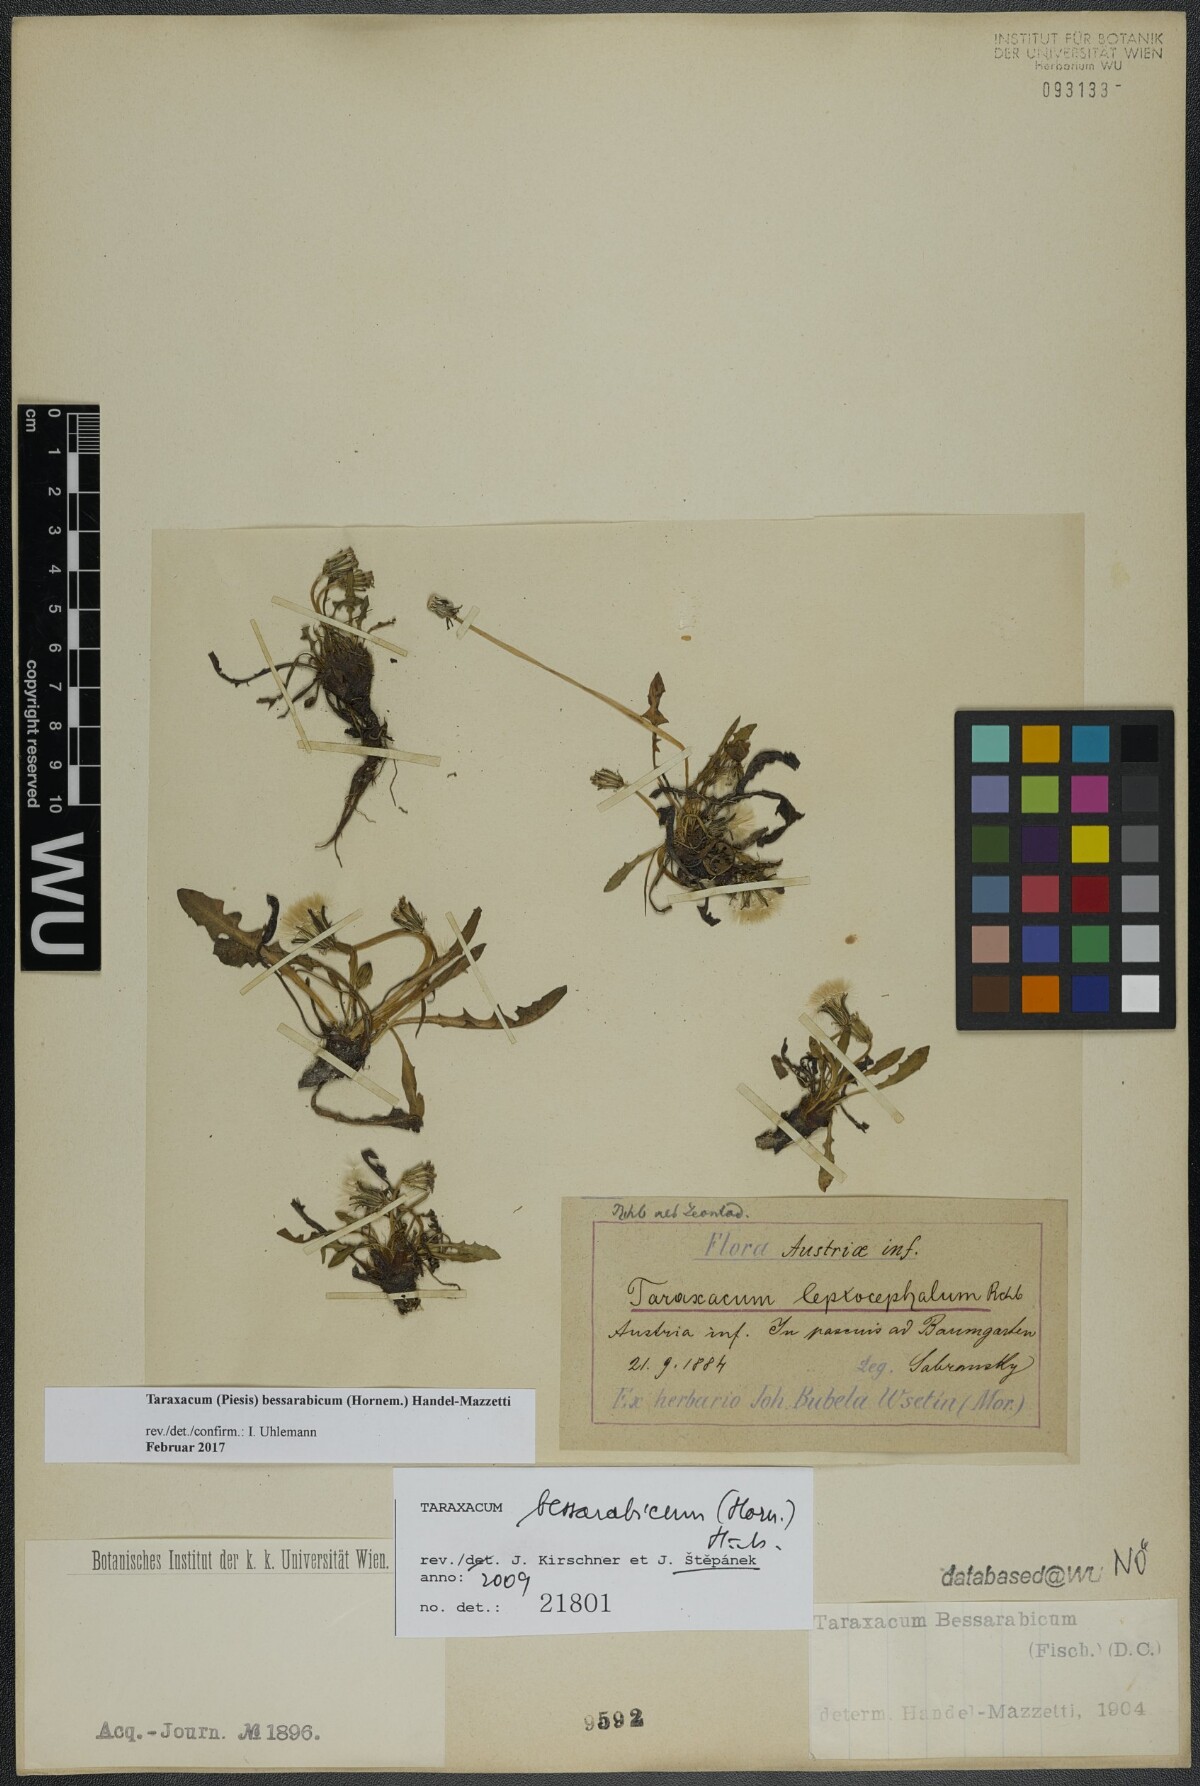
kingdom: Plantae
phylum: Tracheophyta
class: Magnoliopsida
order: Asterales
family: Asteraceae
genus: Taraxacum
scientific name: Taraxacum bessarabicum
